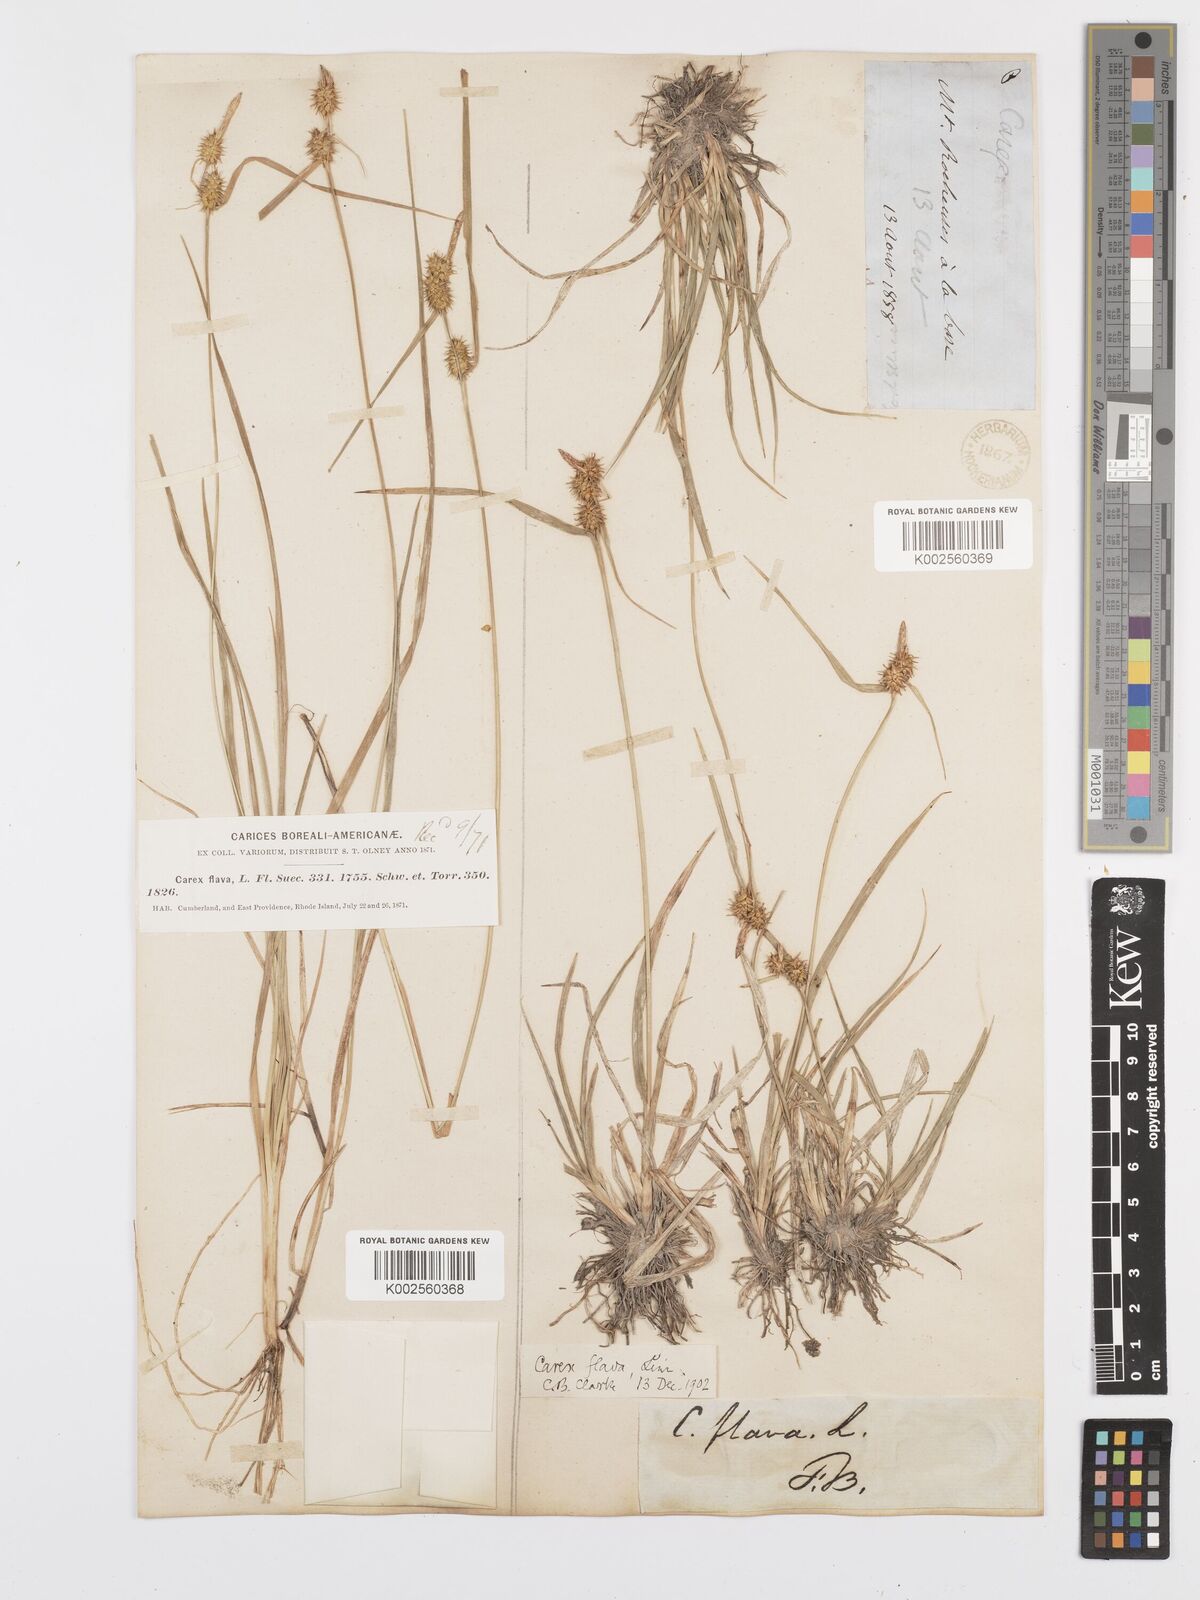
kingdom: Plantae
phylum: Tracheophyta
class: Liliopsida
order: Poales
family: Cyperaceae
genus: Carex
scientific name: Carex lepidocarpa
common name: Long-stalked yellow-sedge
